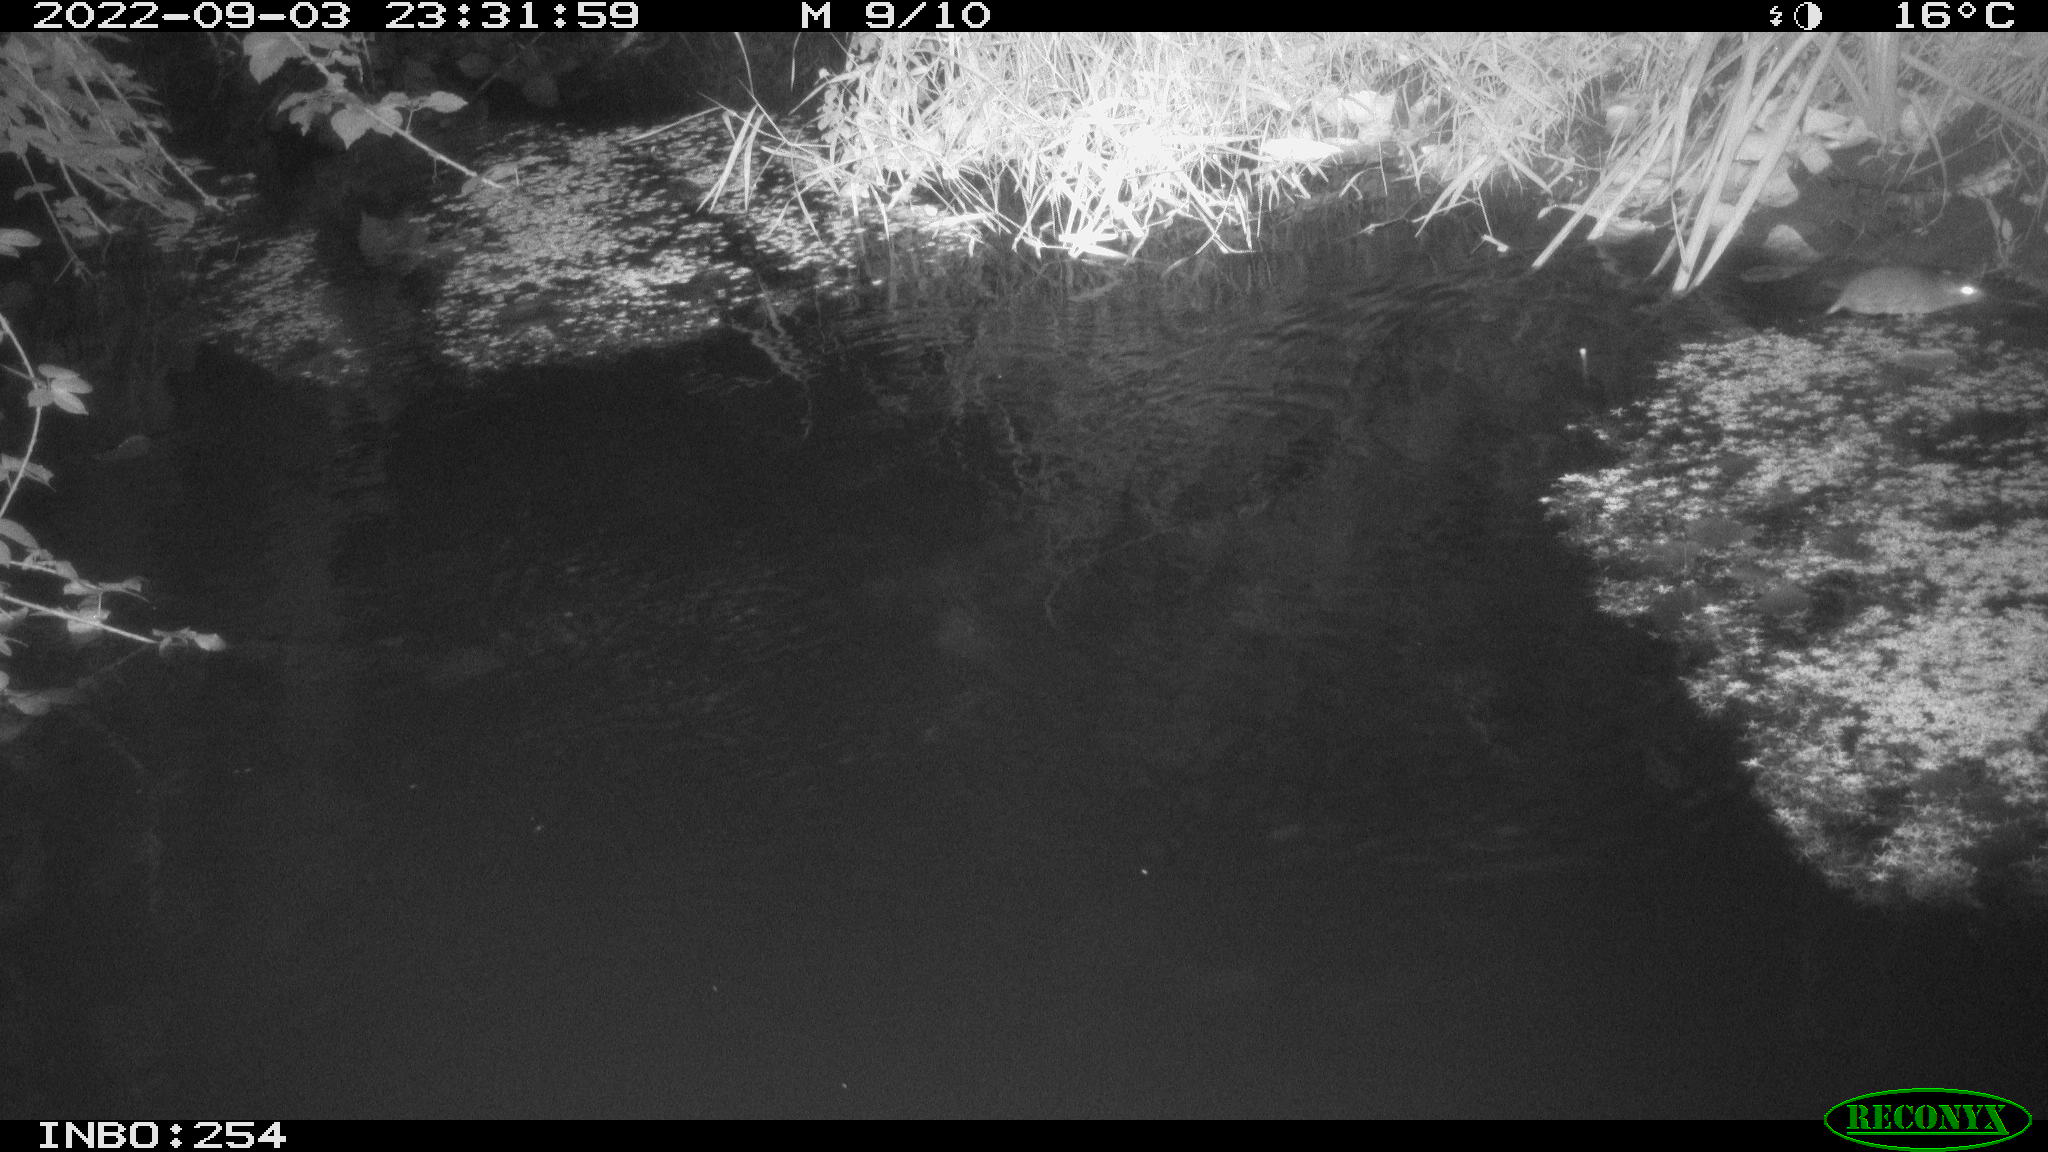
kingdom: Animalia
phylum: Chordata
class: Mammalia
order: Rodentia
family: Muridae
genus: Rattus
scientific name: Rattus norvegicus
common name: Brown rat
